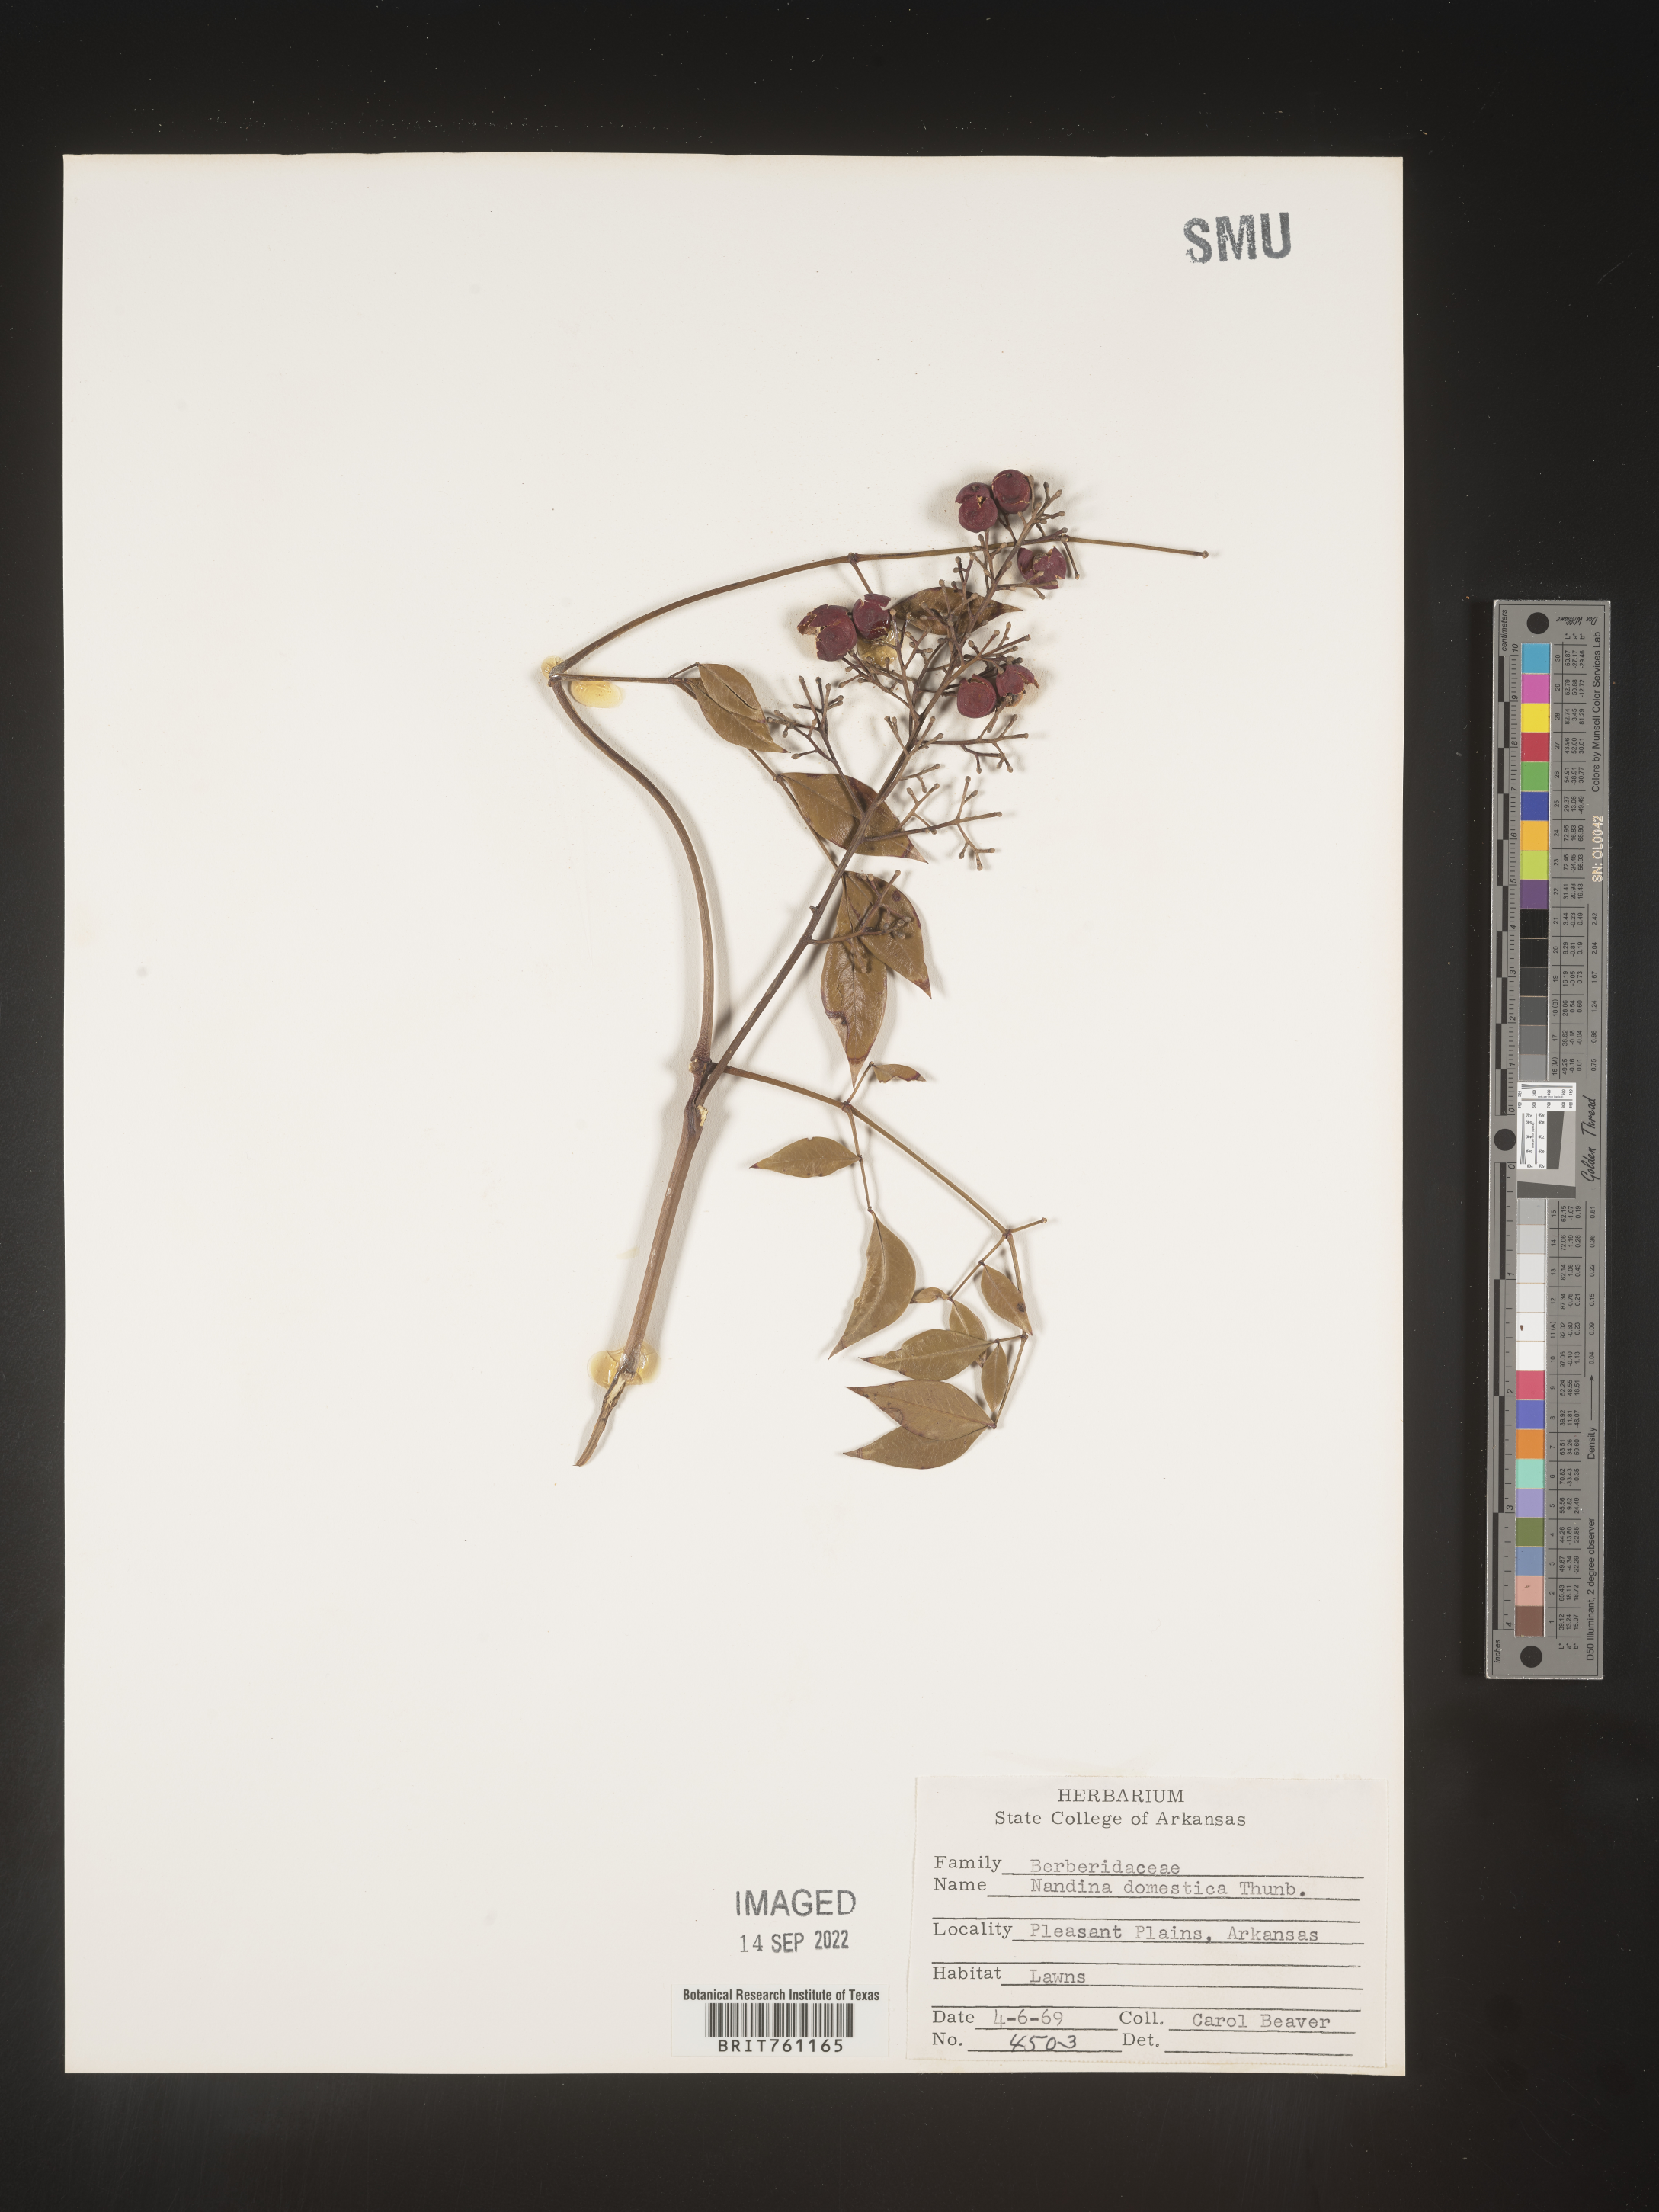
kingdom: Plantae
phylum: Tracheophyta
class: Magnoliopsida
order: Ranunculales
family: Berberidaceae
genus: Nandina
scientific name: Nandina
